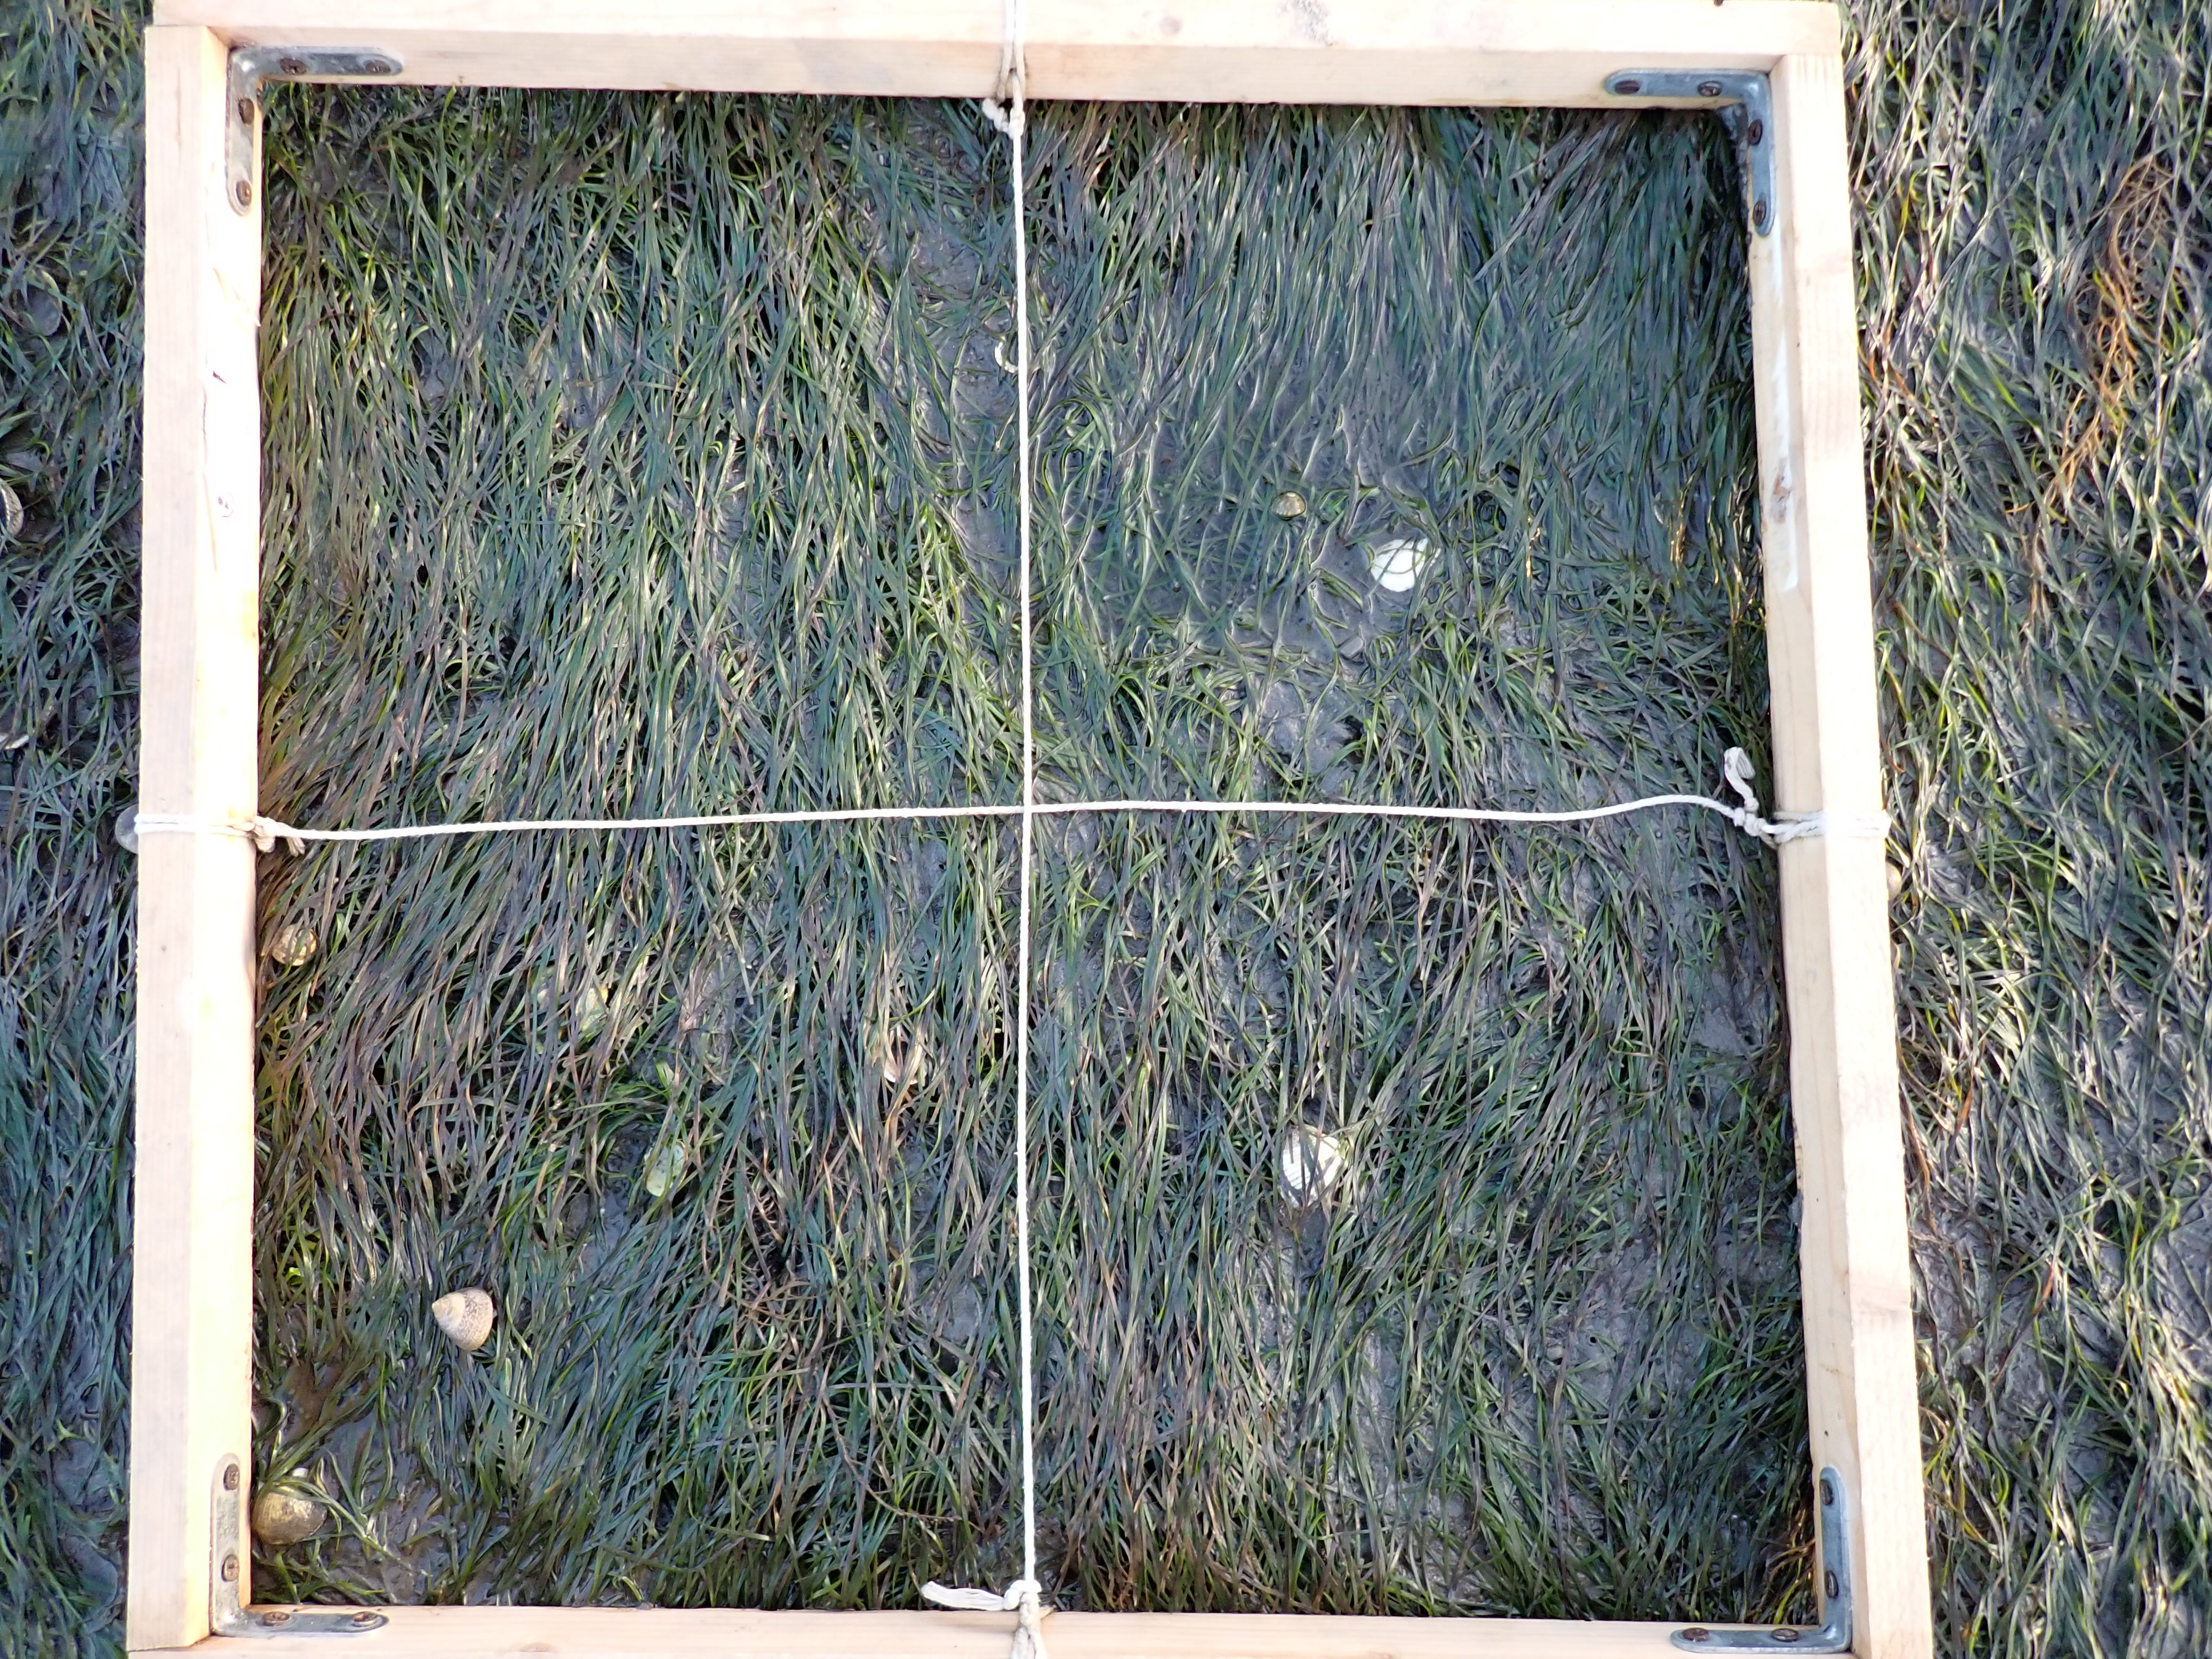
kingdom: Plantae
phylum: Tracheophyta
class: Liliopsida
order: Alismatales
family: Zosteraceae
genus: Zostera
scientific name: Zostera noltii
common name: Dwarf eelgrass
